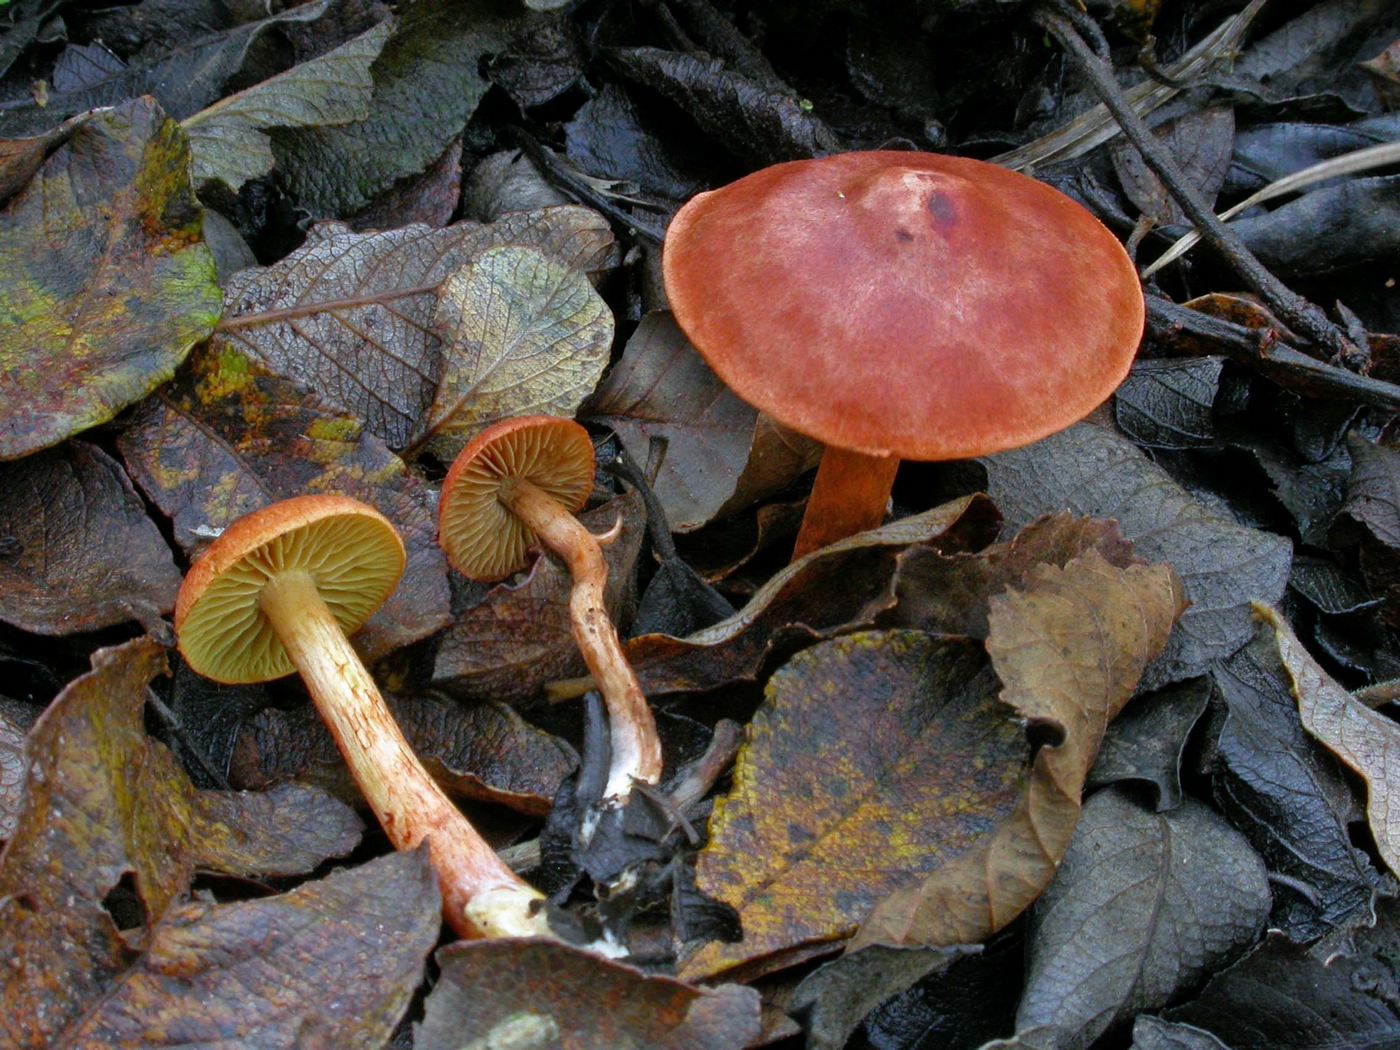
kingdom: Fungi
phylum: Basidiomycota
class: Agaricomycetes
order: Agaricales
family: Cortinariaceae
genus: Cortinarius
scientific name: Cortinarius uliginosus
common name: mose-slørhat
